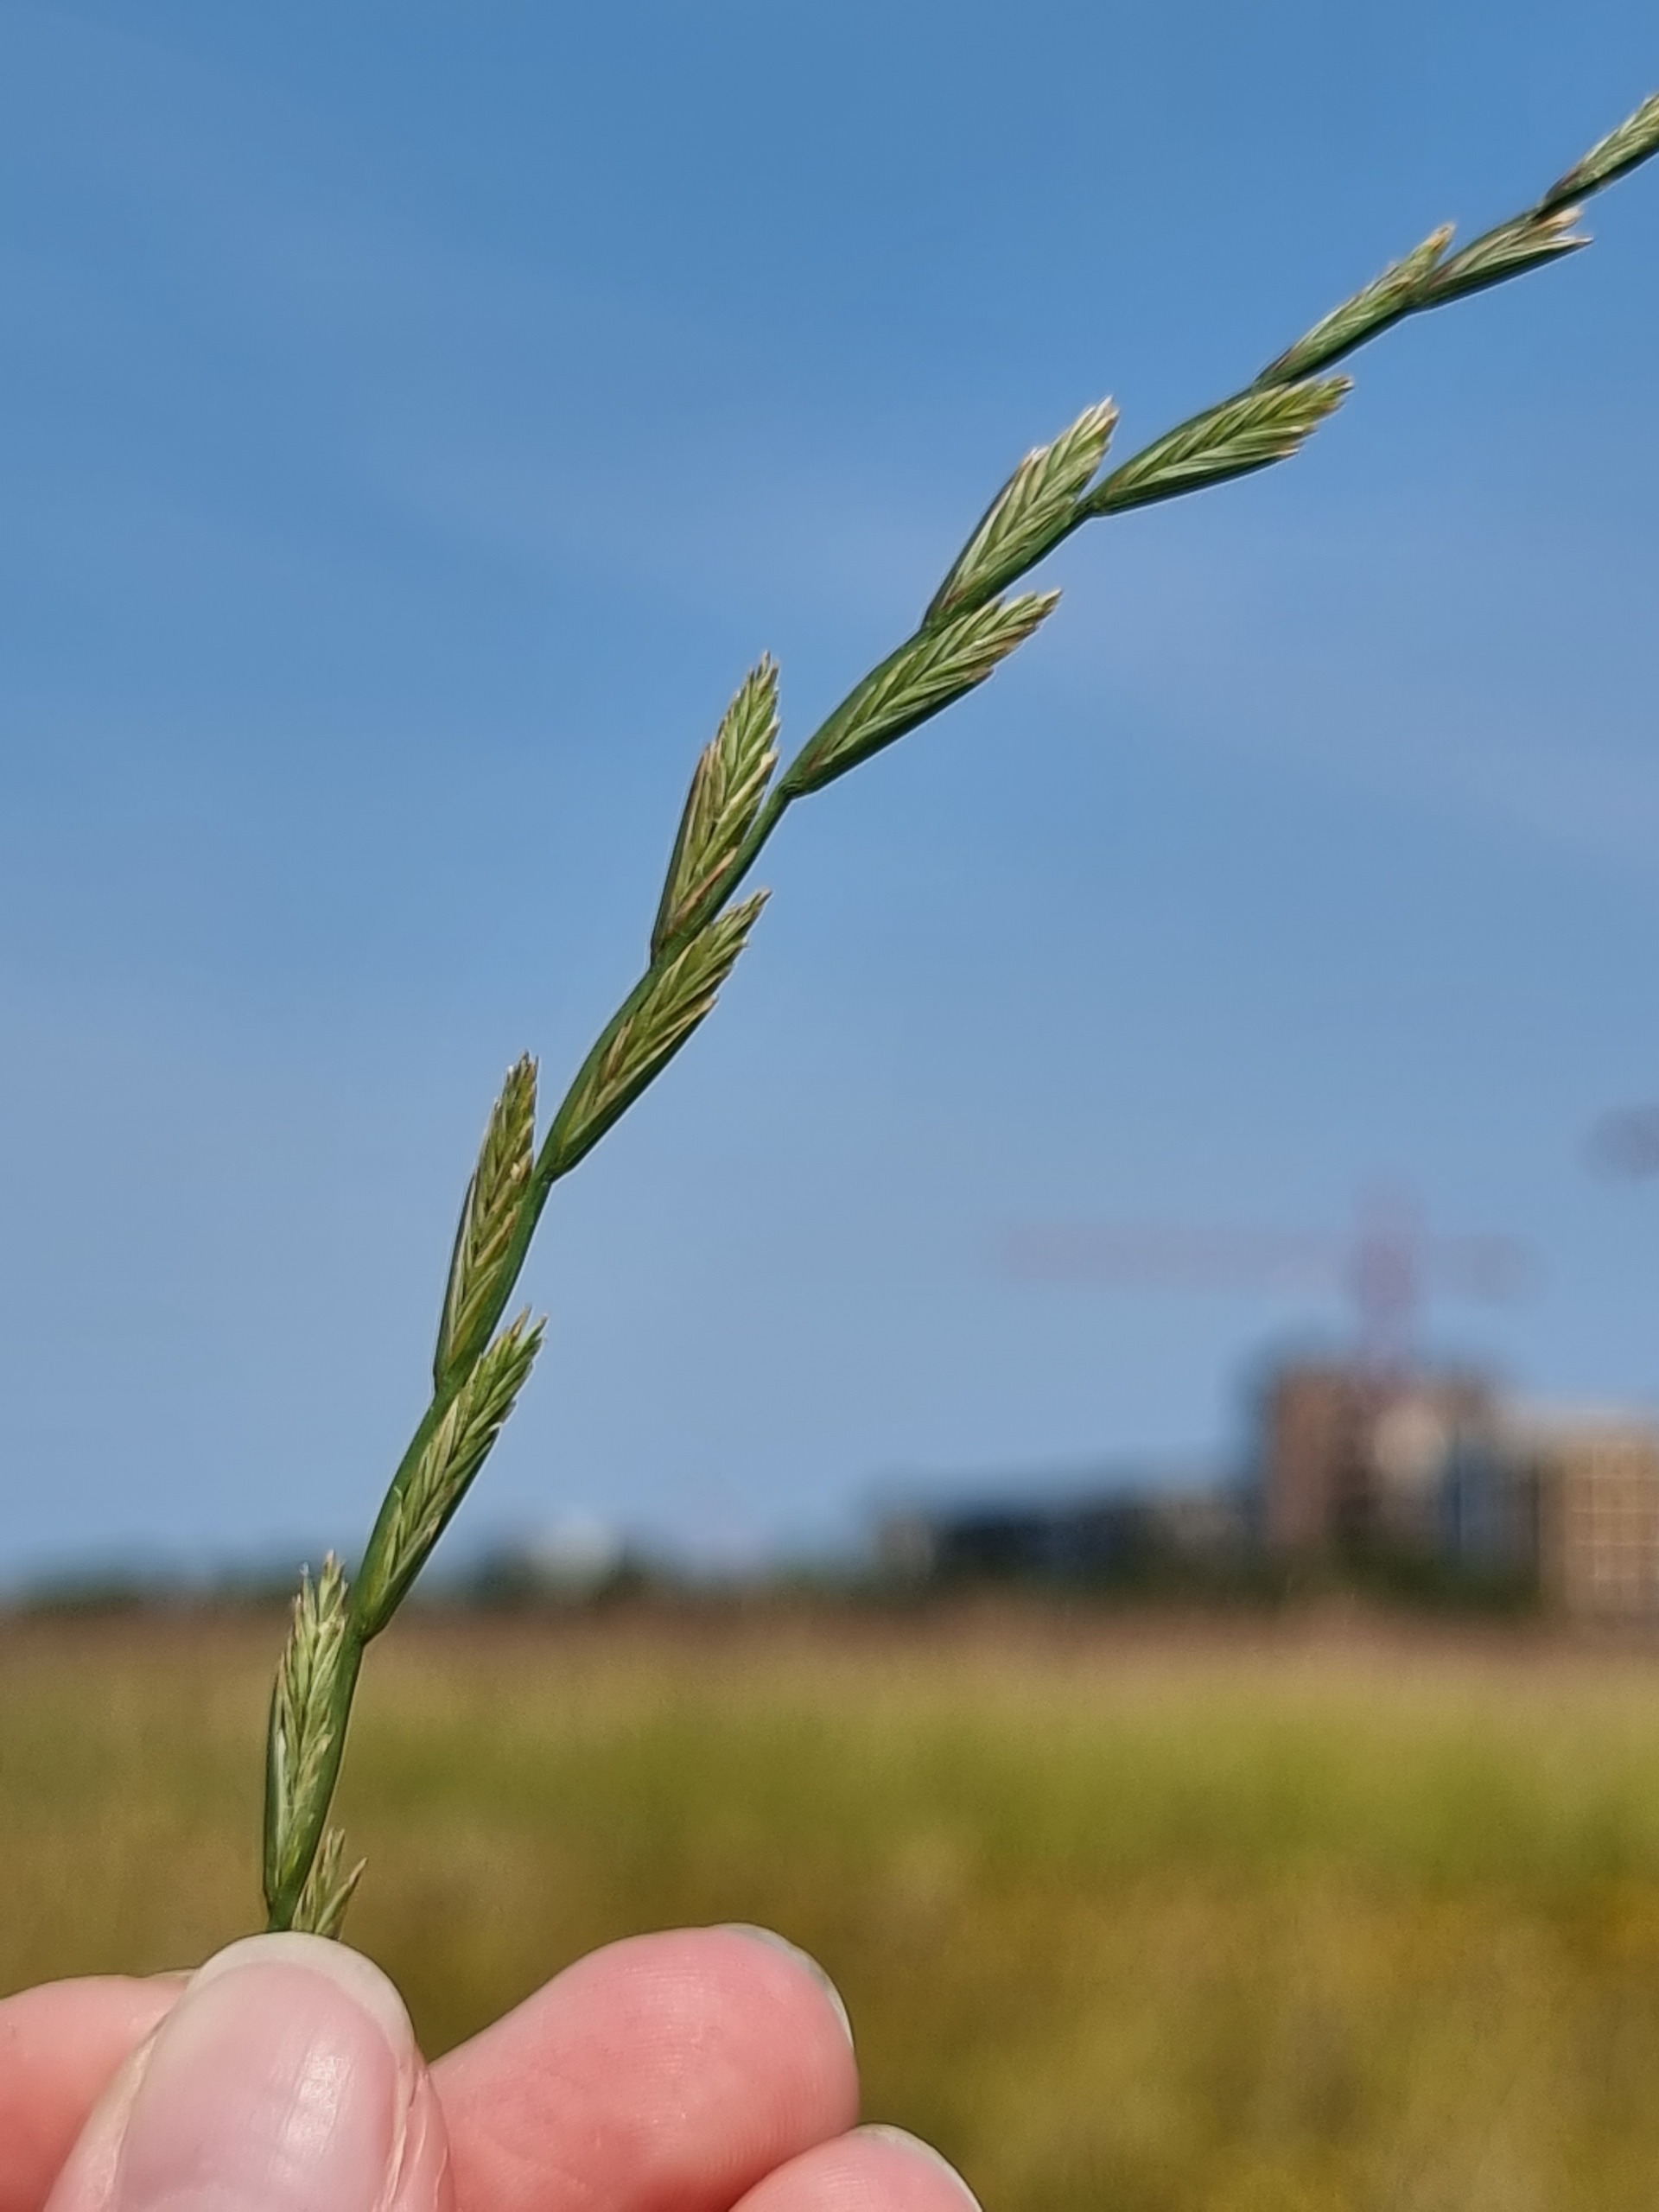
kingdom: Plantae
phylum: Tracheophyta
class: Liliopsida
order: Poales
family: Poaceae
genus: Lolium
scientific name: Lolium perenne
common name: Almindelig rajgræs
